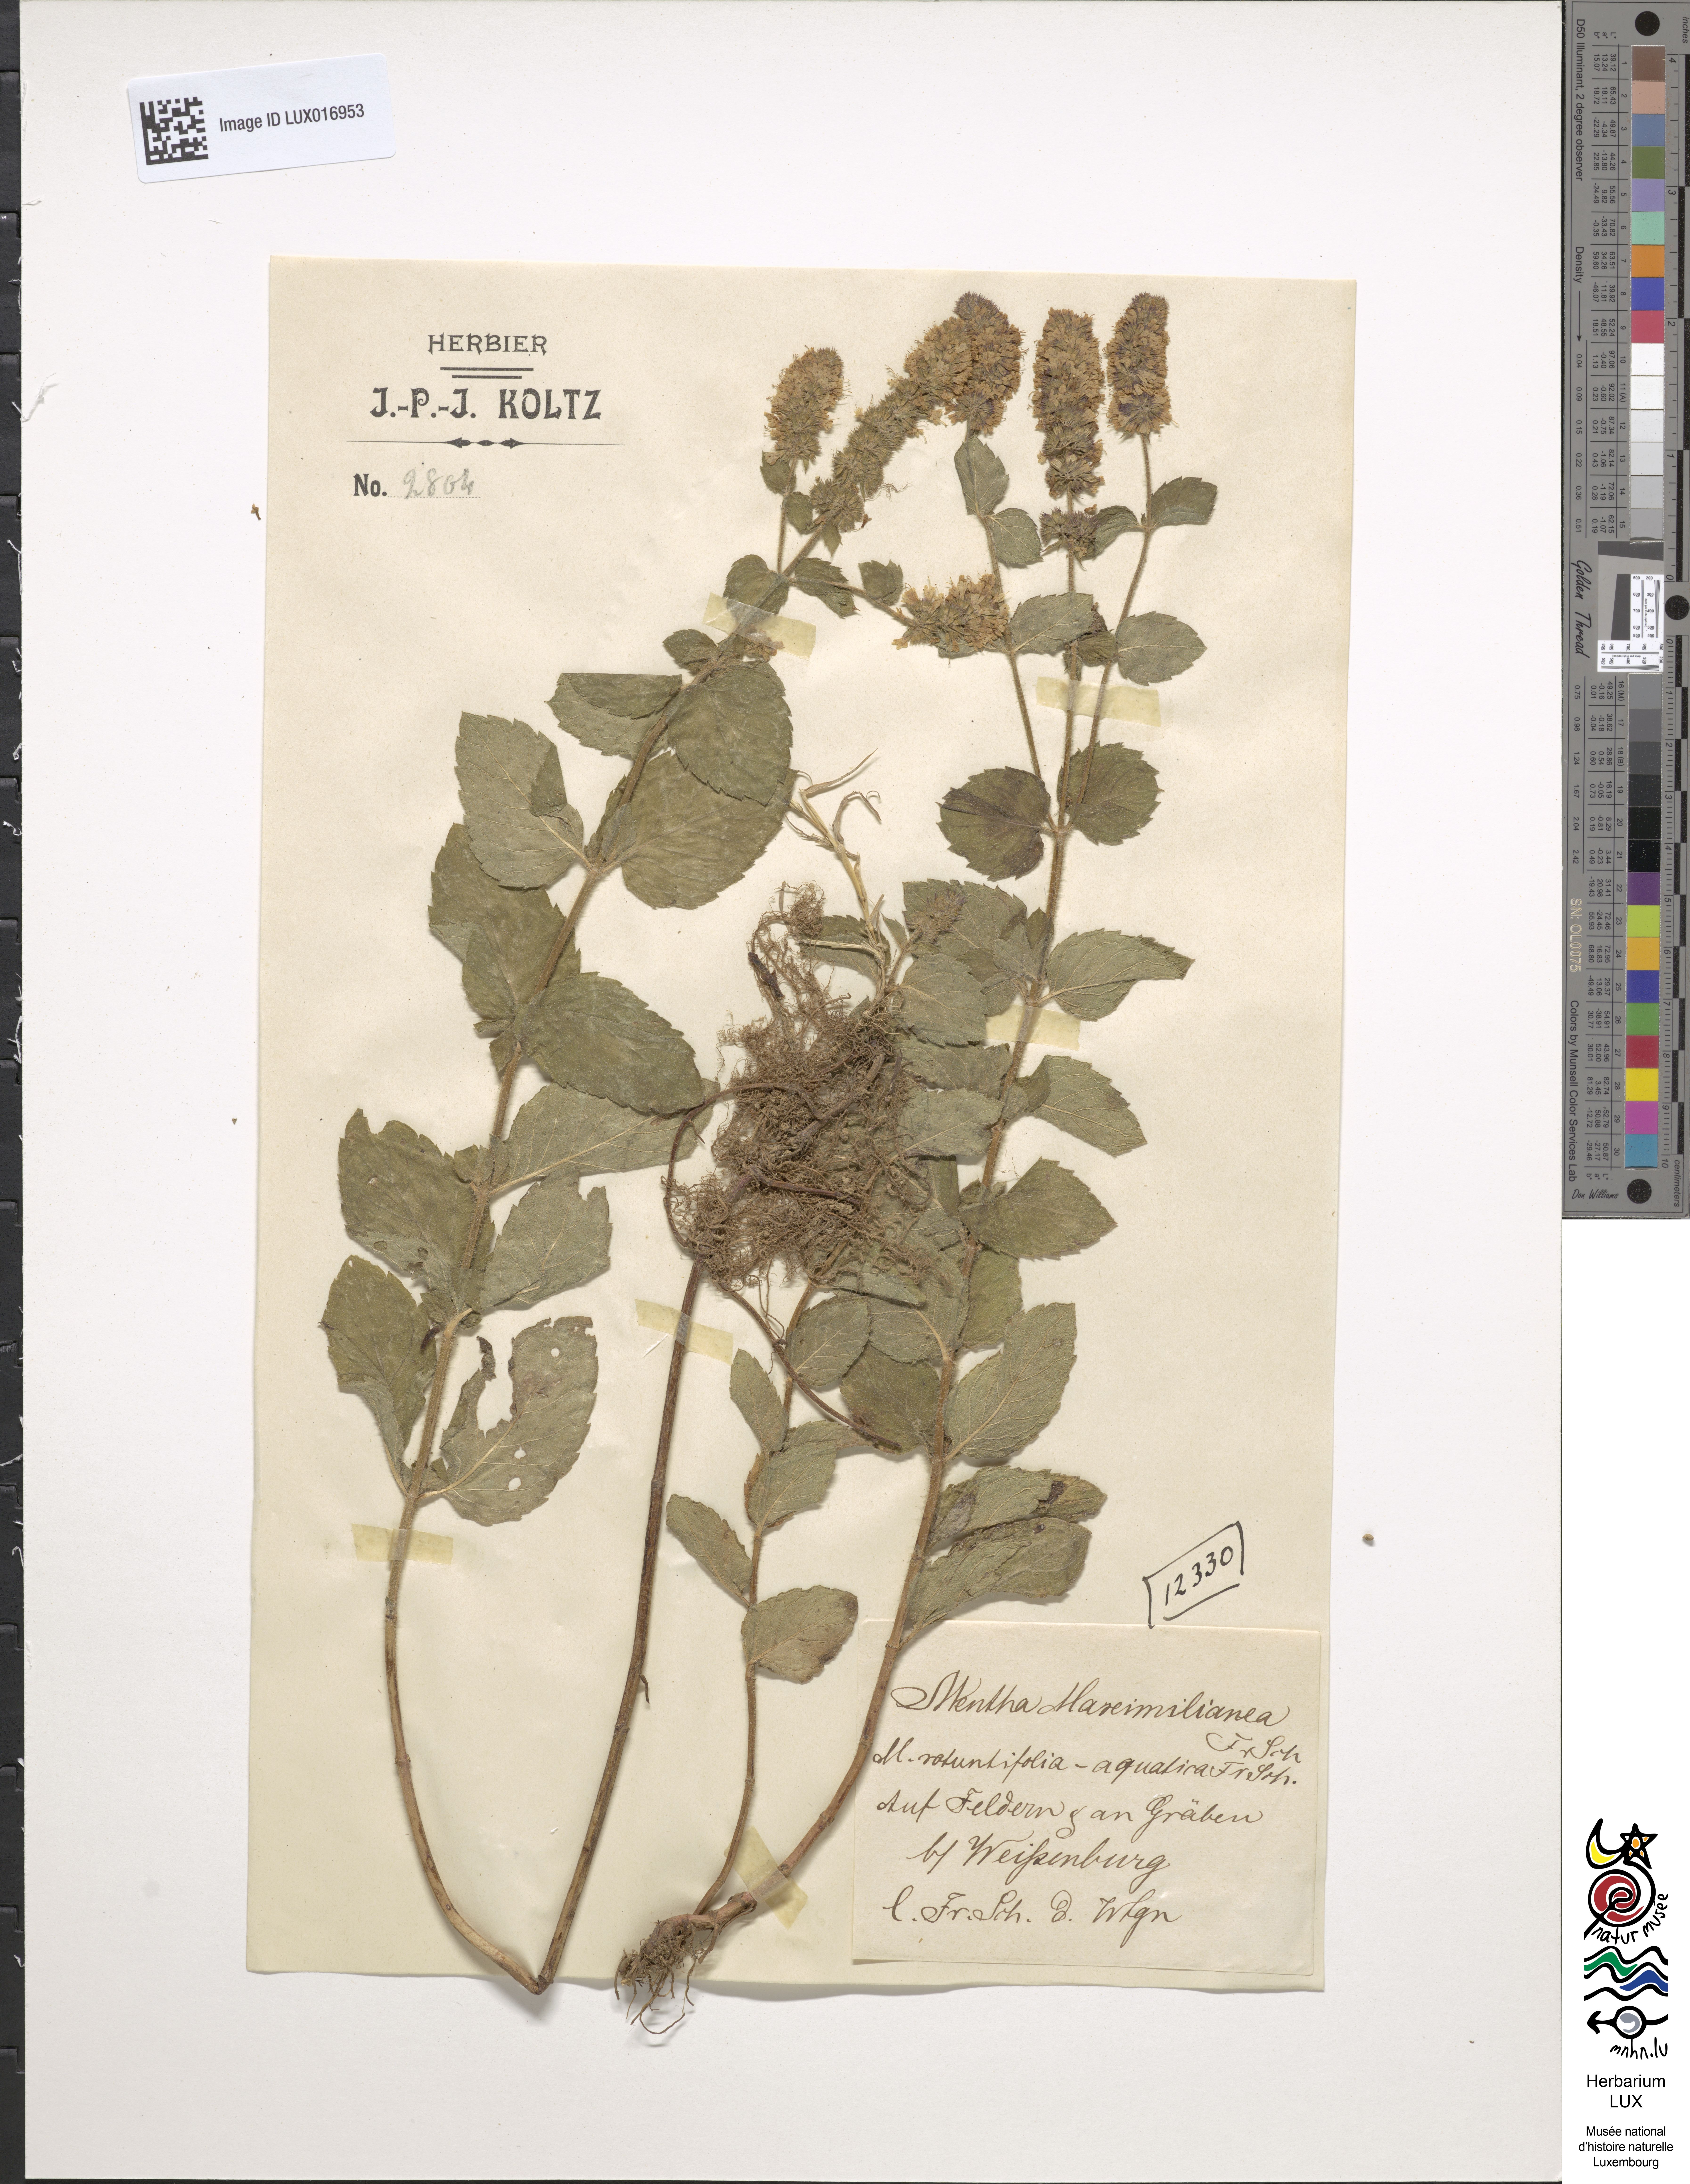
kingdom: Plantae
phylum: Tracheophyta
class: Magnoliopsida
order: Lamiales
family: Lamiaceae
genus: Mentha
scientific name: Mentha suavis
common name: Sweet mint
